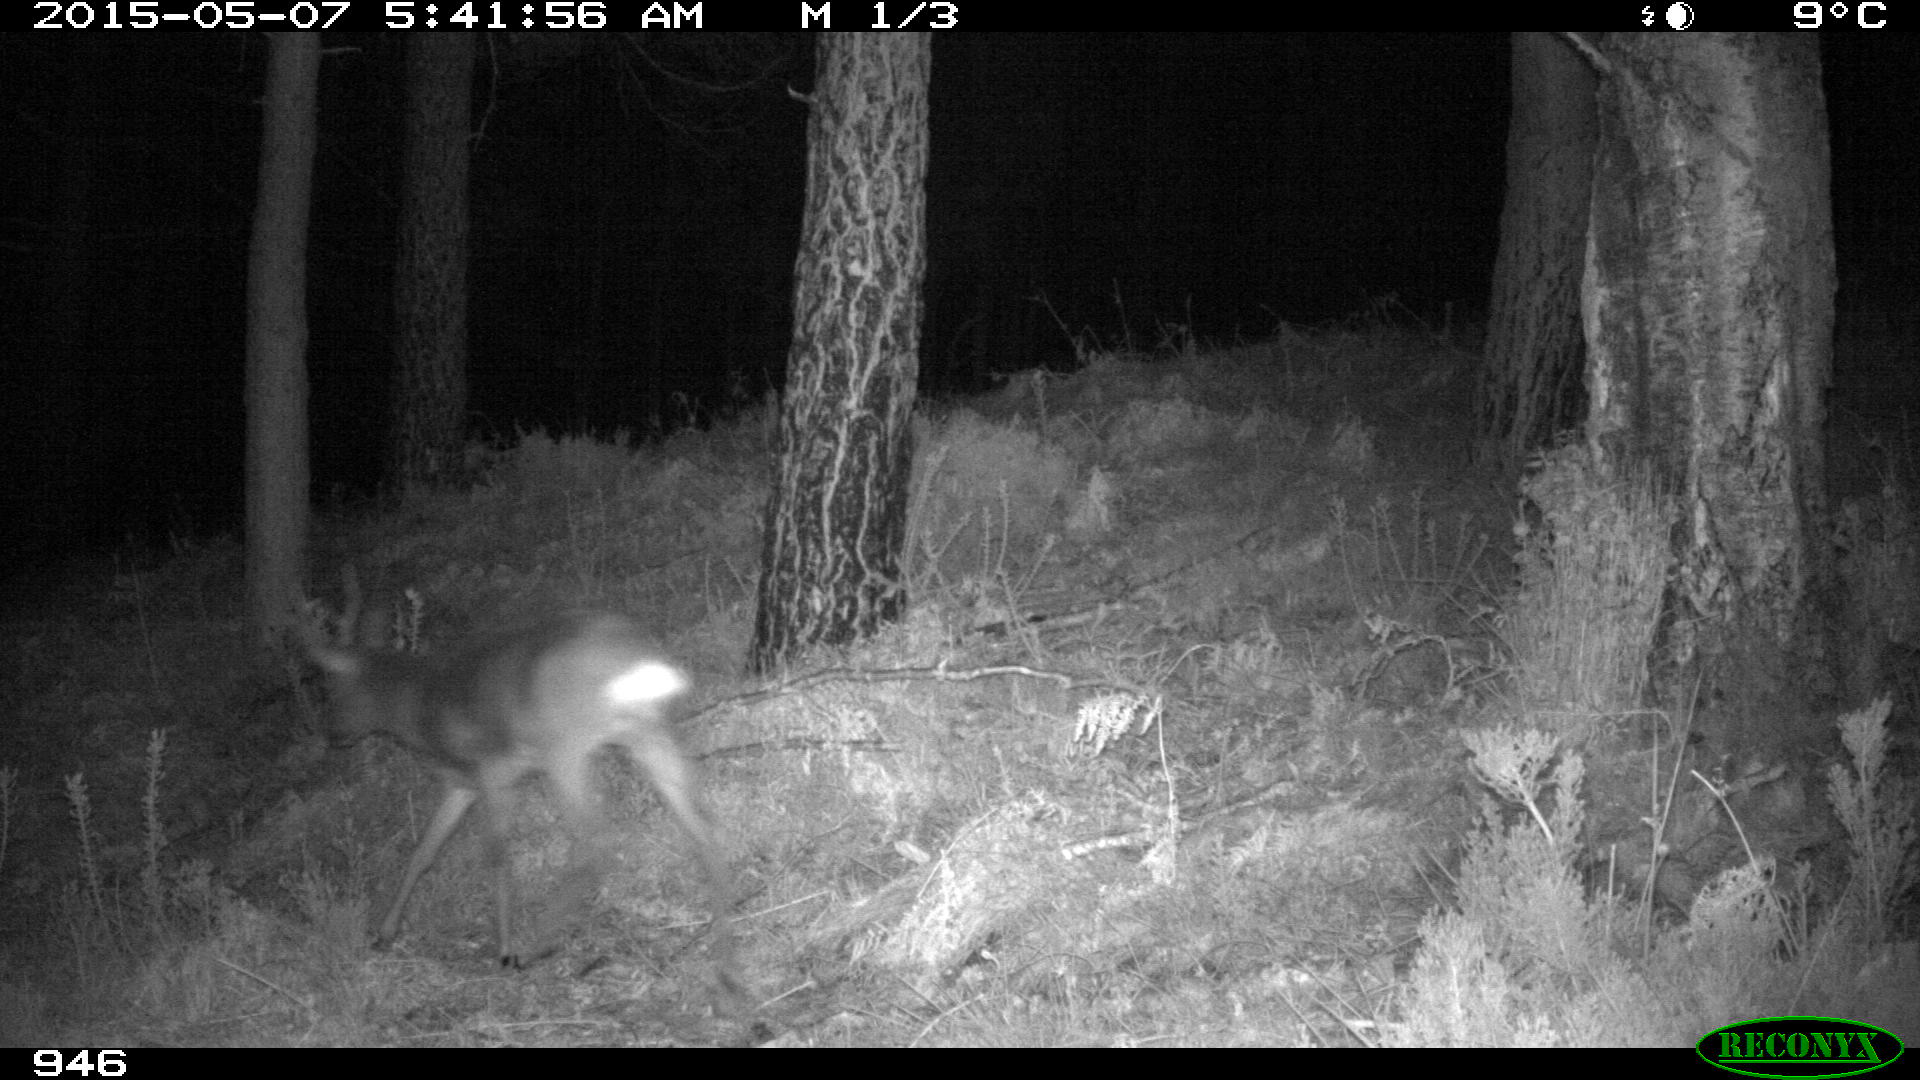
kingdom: Animalia
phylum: Chordata
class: Mammalia
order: Artiodactyla
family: Cervidae
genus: Capreolus
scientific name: Capreolus capreolus
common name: Western roe deer
